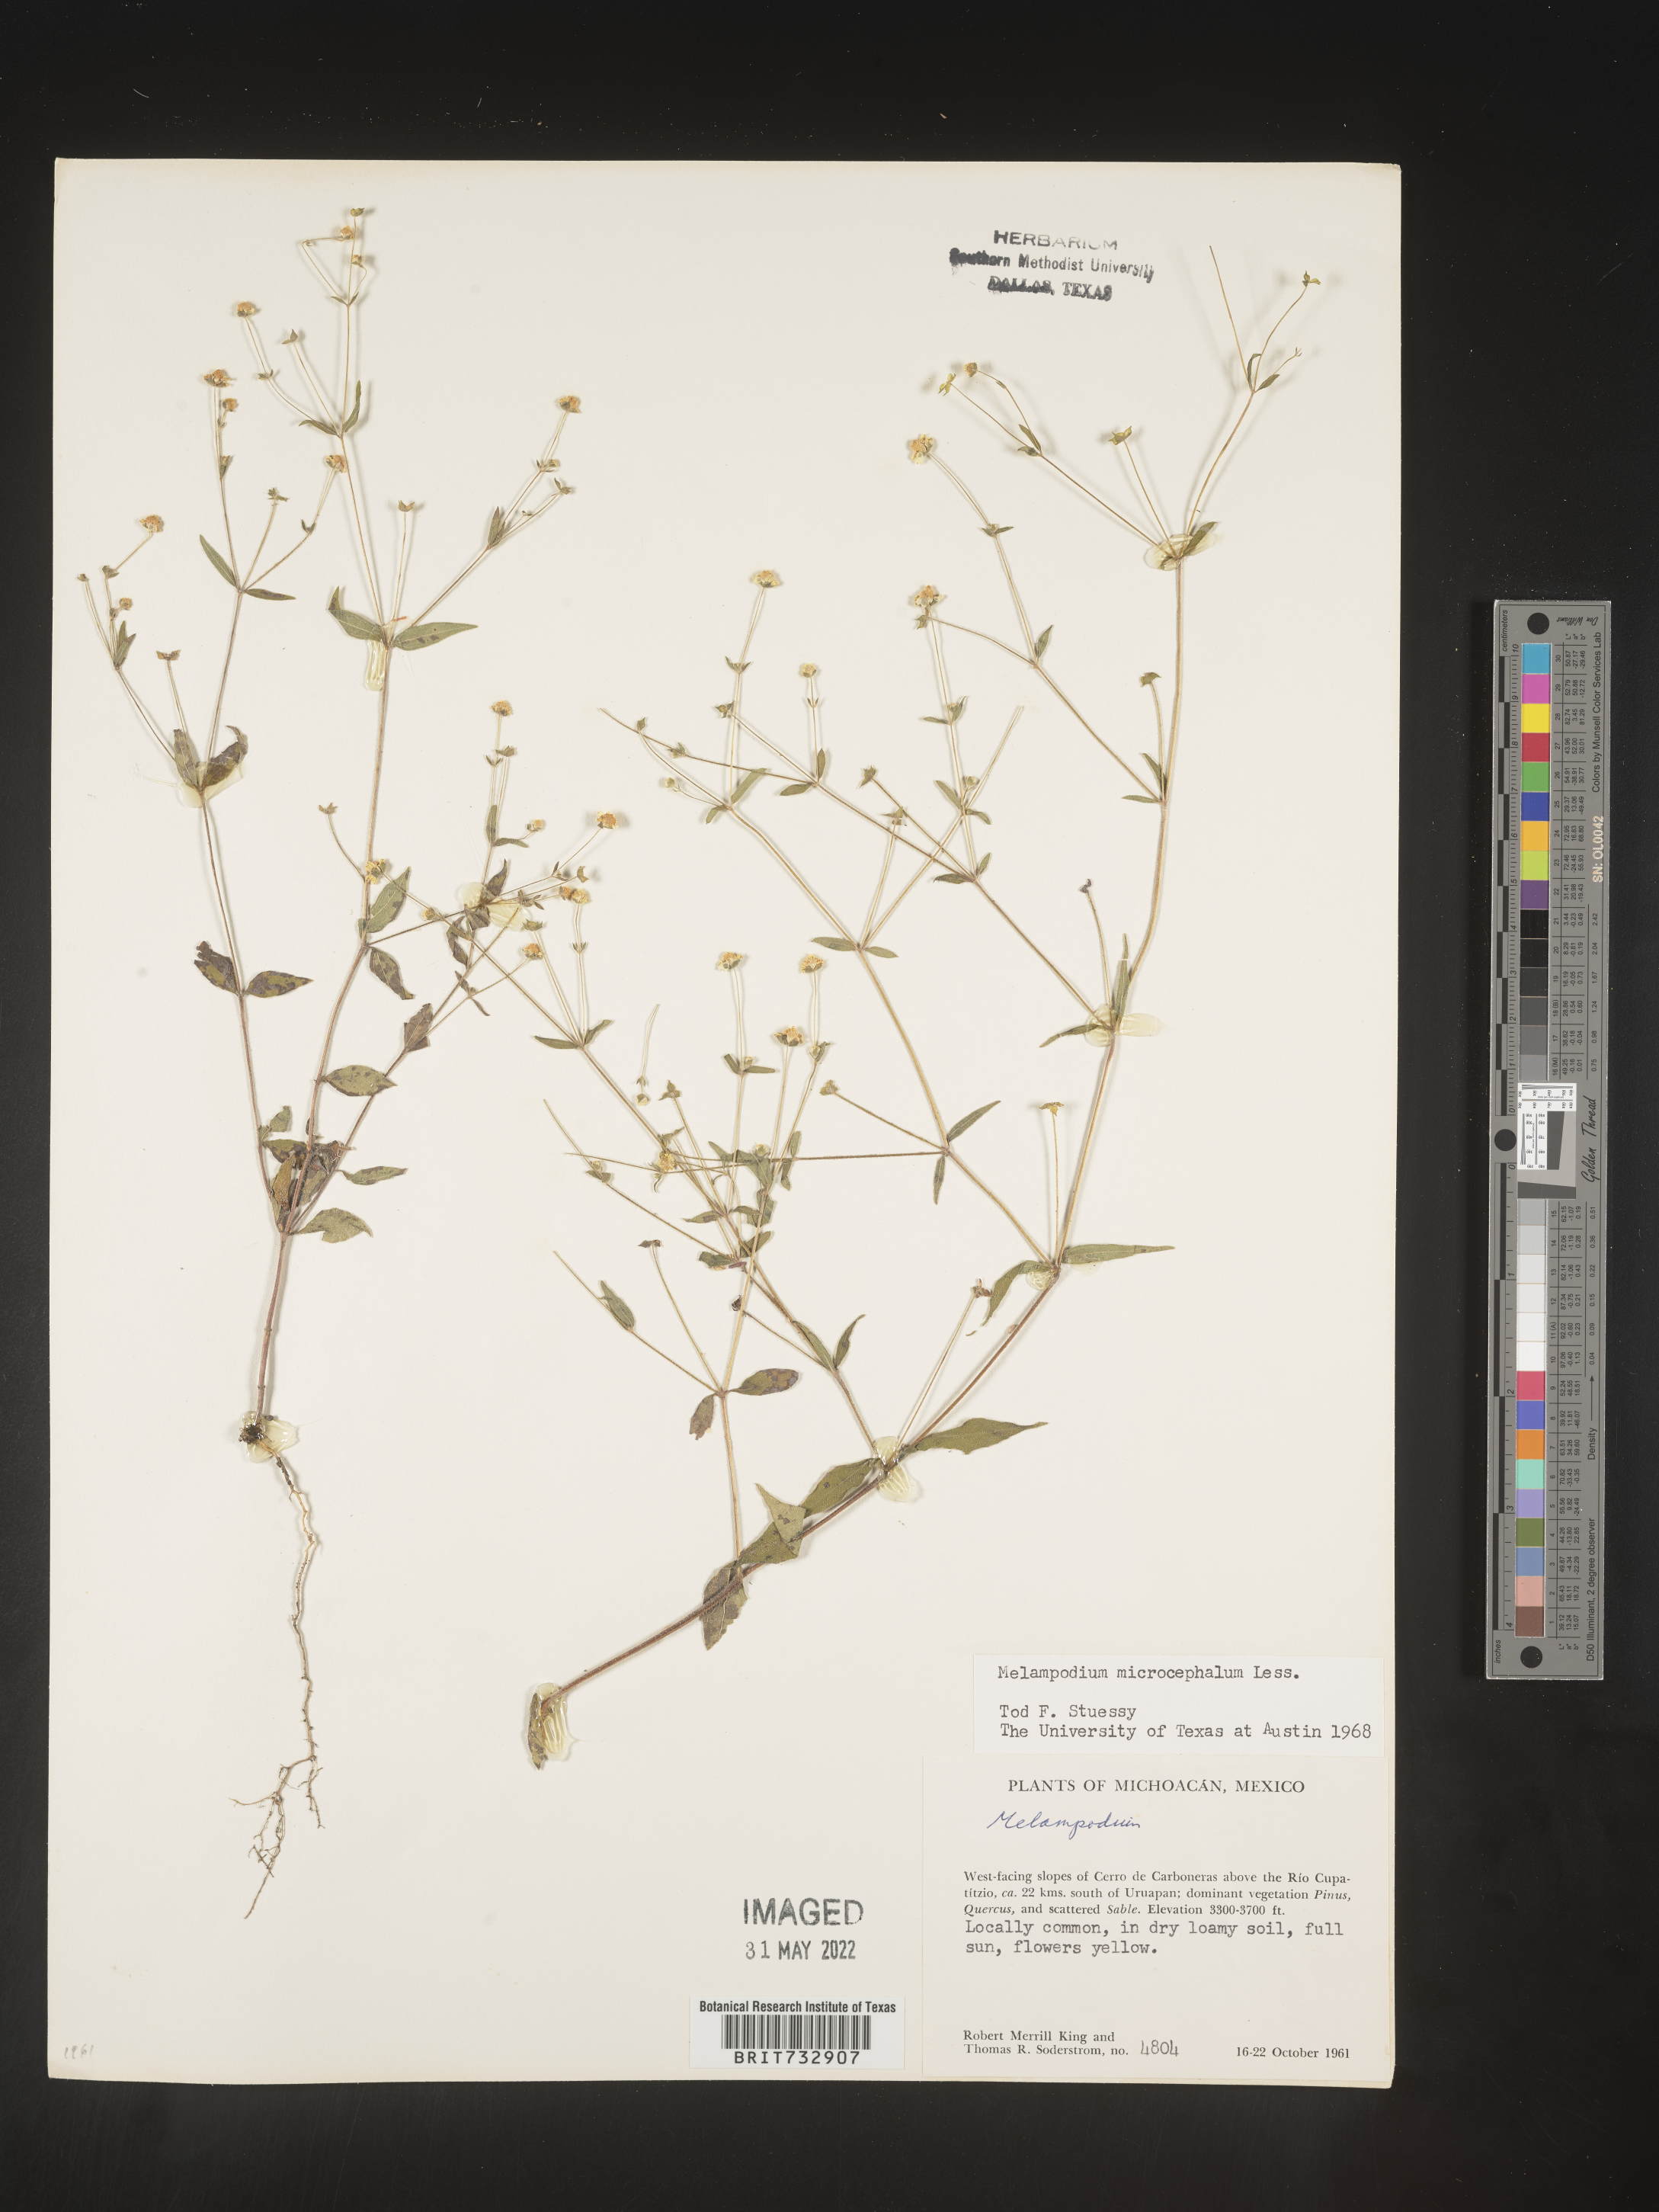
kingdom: Plantae
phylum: Tracheophyta
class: Magnoliopsida
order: Asterales
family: Asteraceae
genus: Melampodium
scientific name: Melampodium
